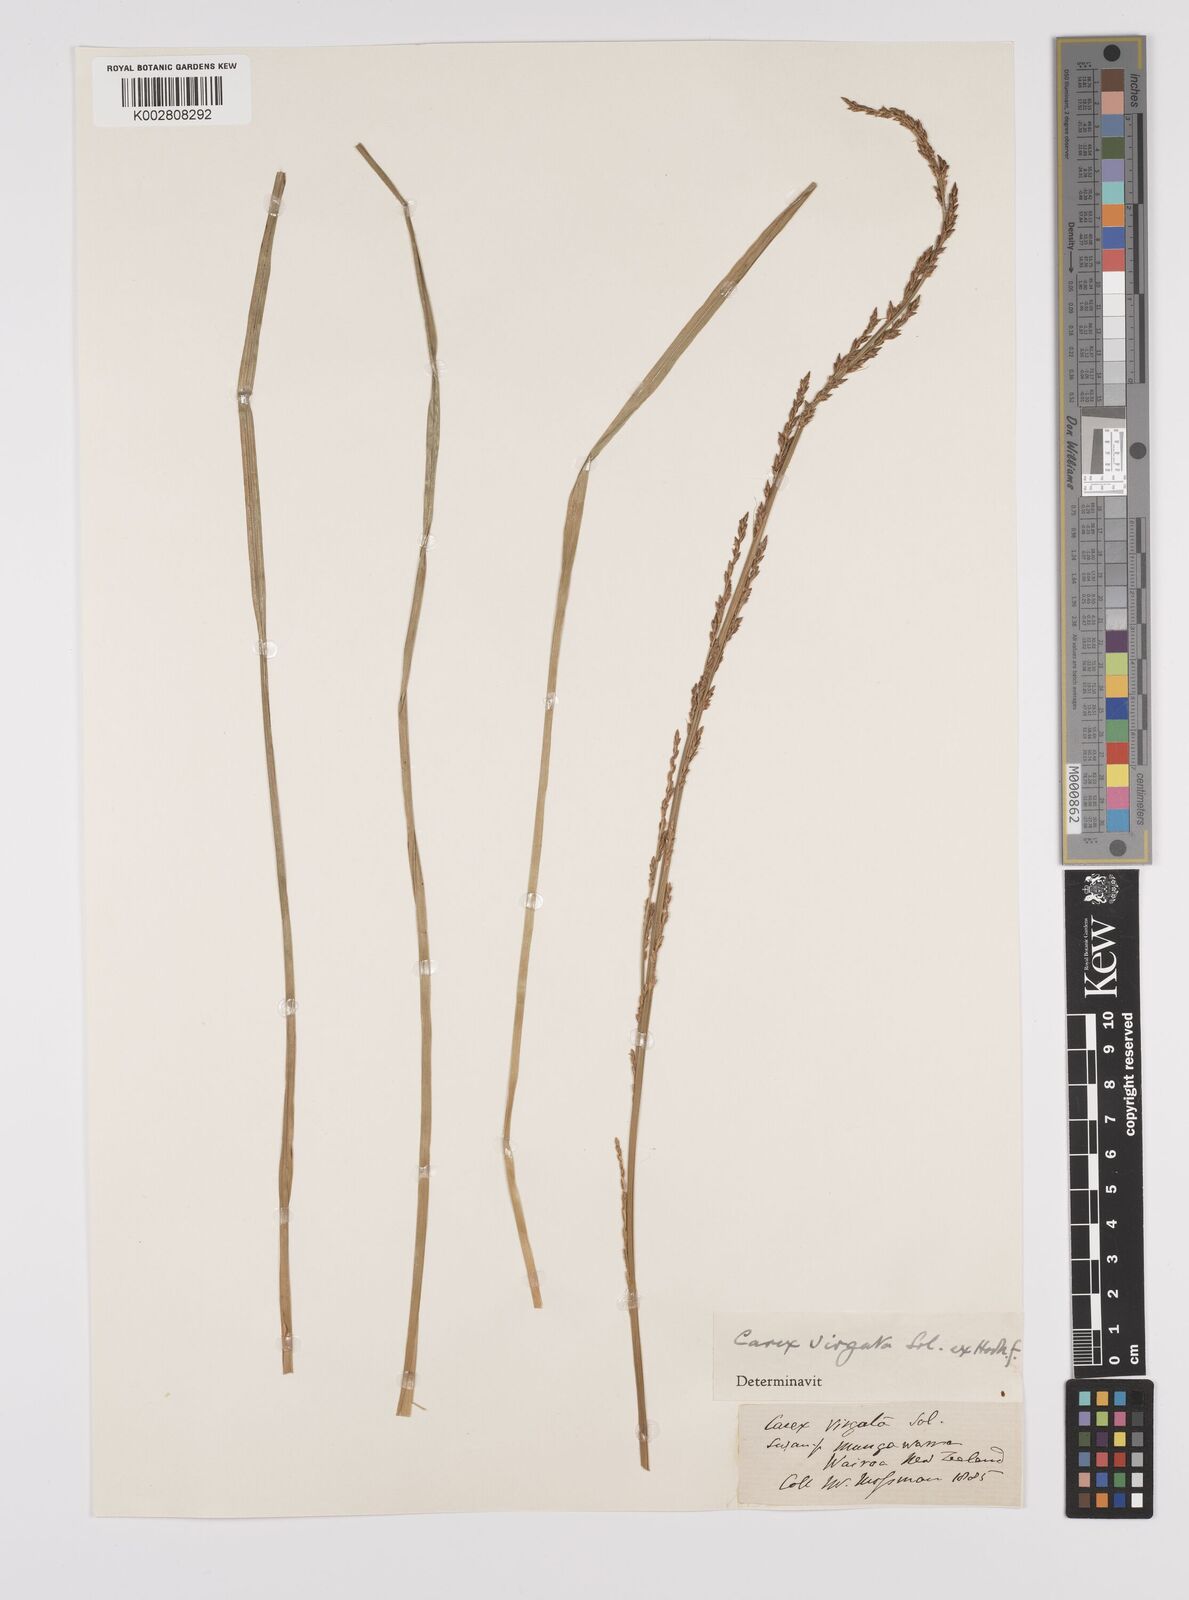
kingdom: Plantae
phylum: Tracheophyta
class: Liliopsida
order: Poales
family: Cyperaceae
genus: Carex
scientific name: Carex appressa
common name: Tussock sedge
